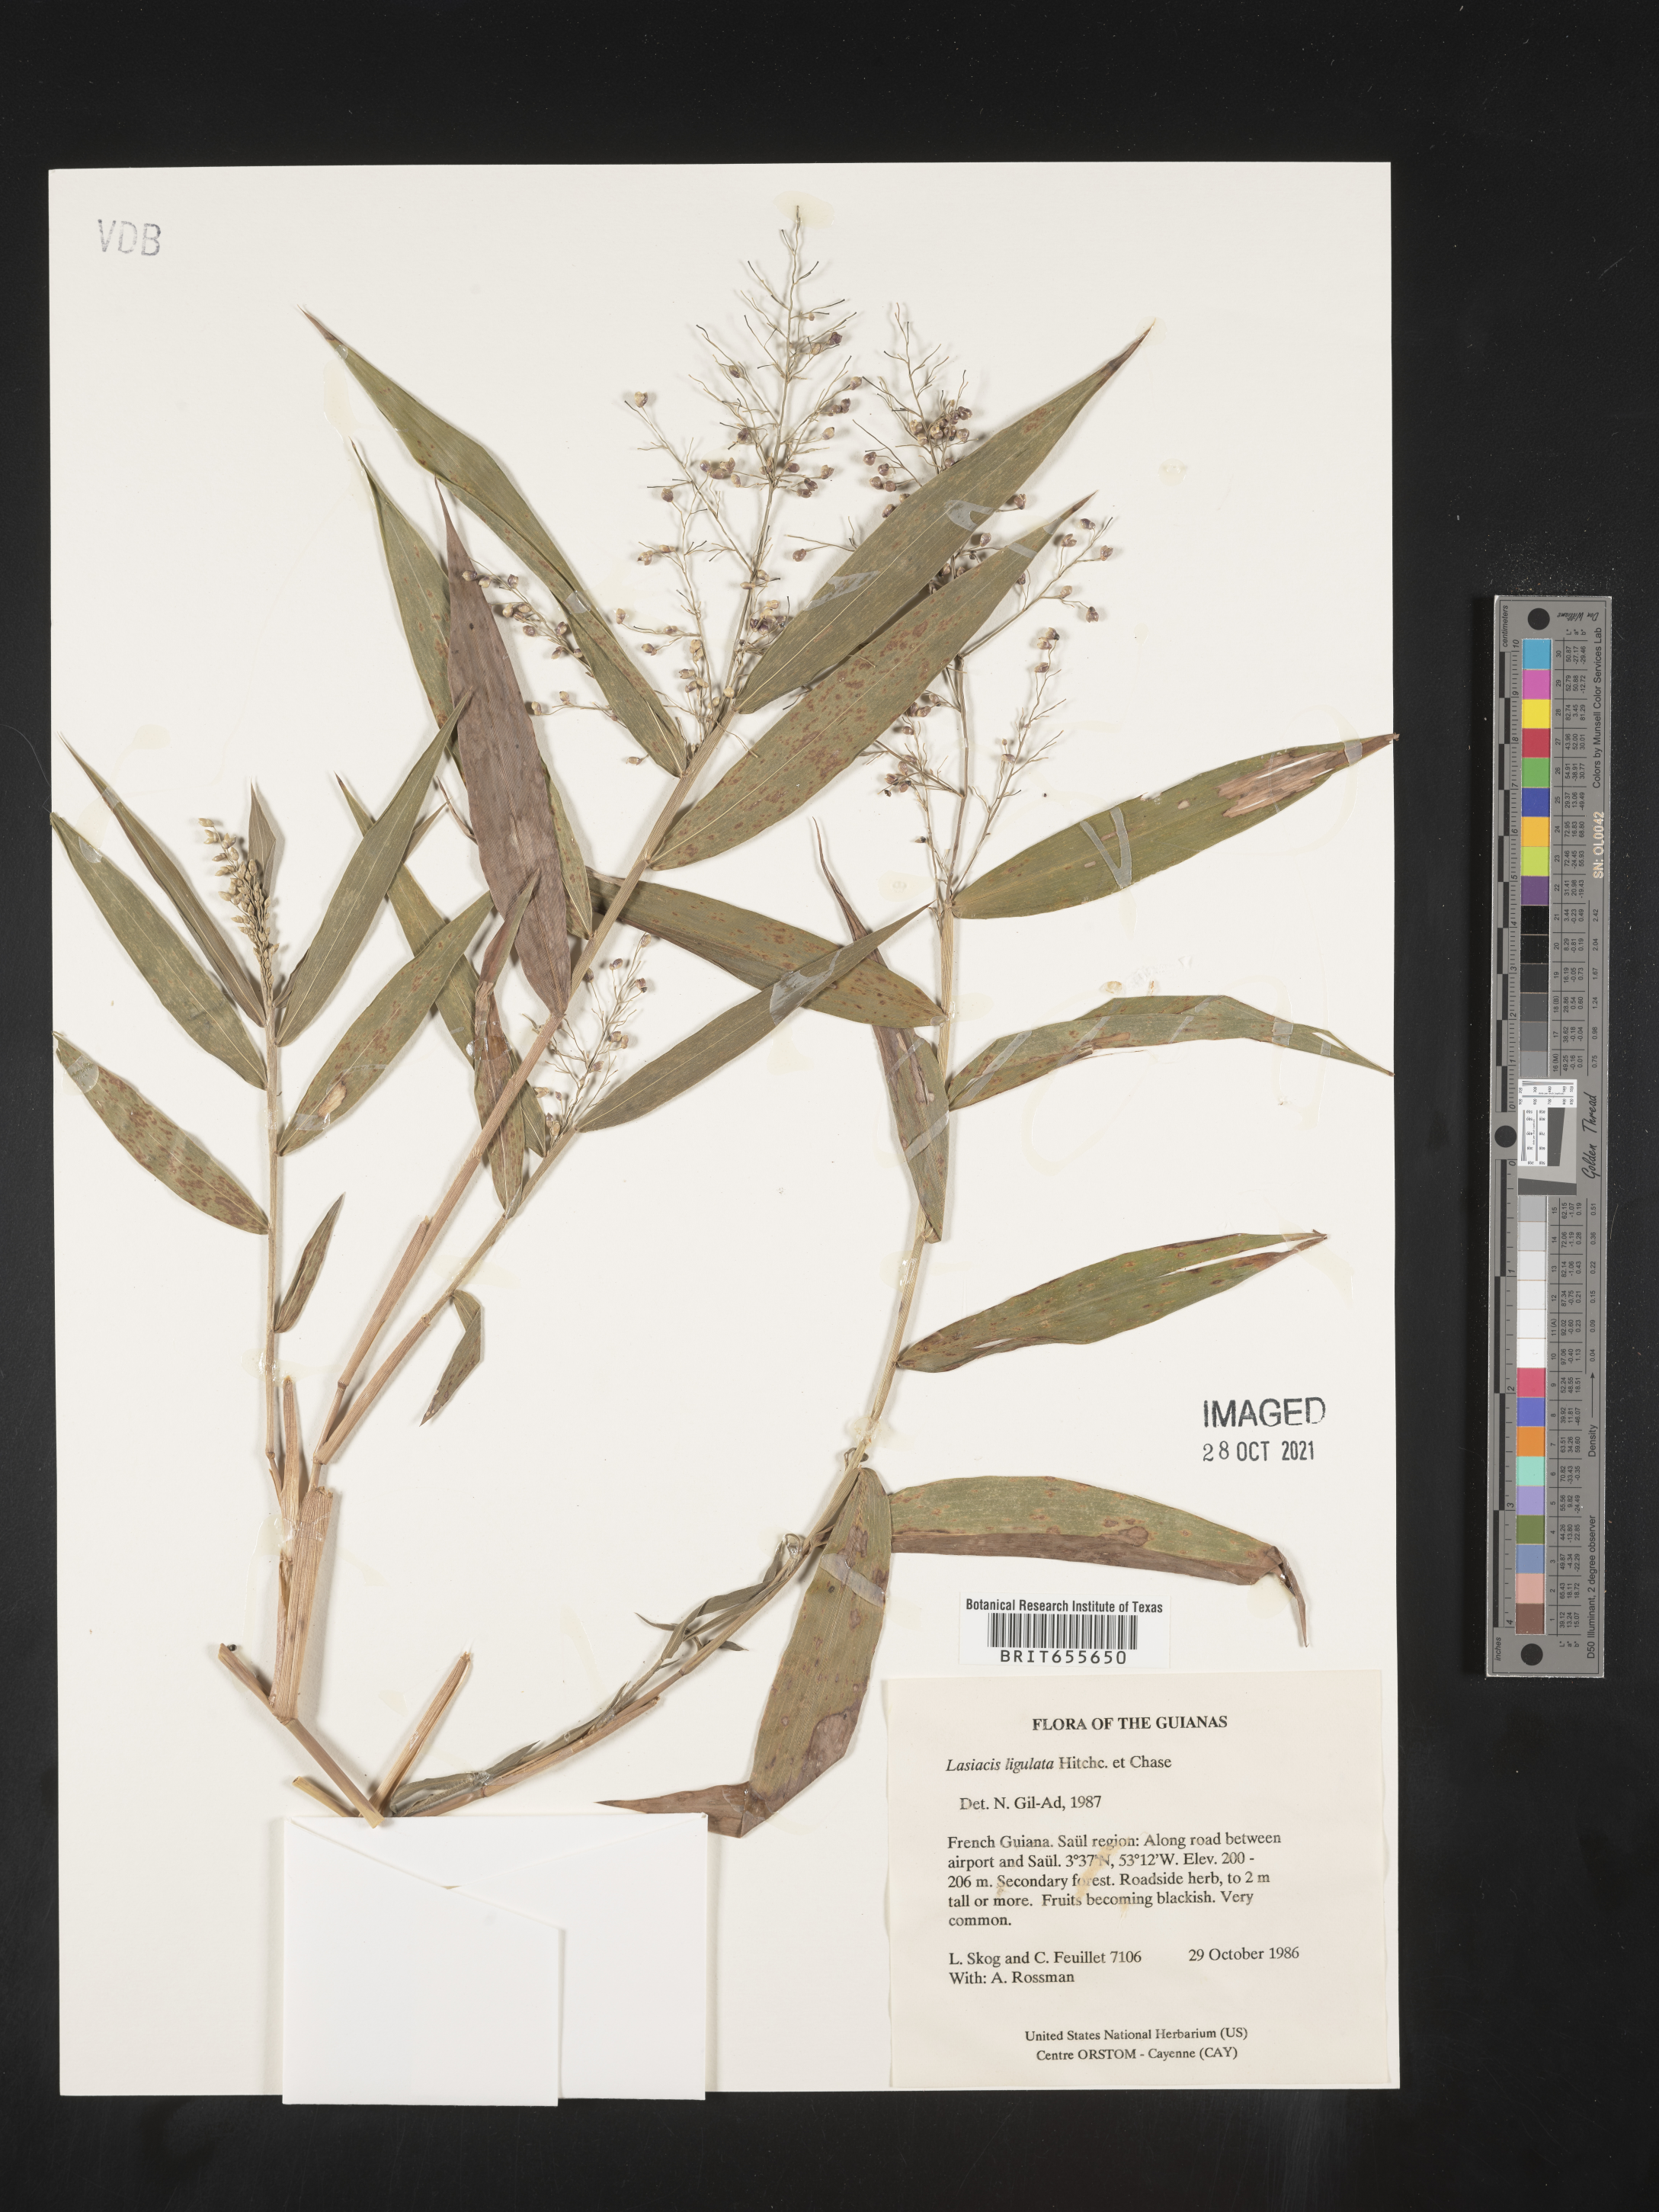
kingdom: Plantae
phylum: Tracheophyta
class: Liliopsida
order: Poales
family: Poaceae
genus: Lasiacis
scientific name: Lasiacis
